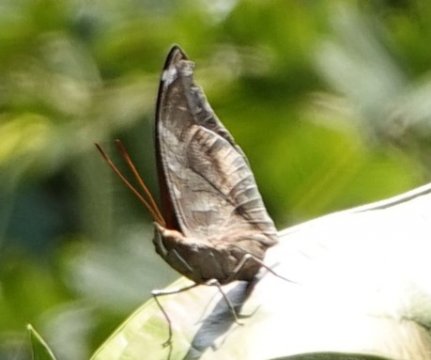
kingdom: Animalia
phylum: Arthropoda
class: Insecta
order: Lepidoptera
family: Nymphalidae
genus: Historis
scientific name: Historis odius
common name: Orion Cecropian
